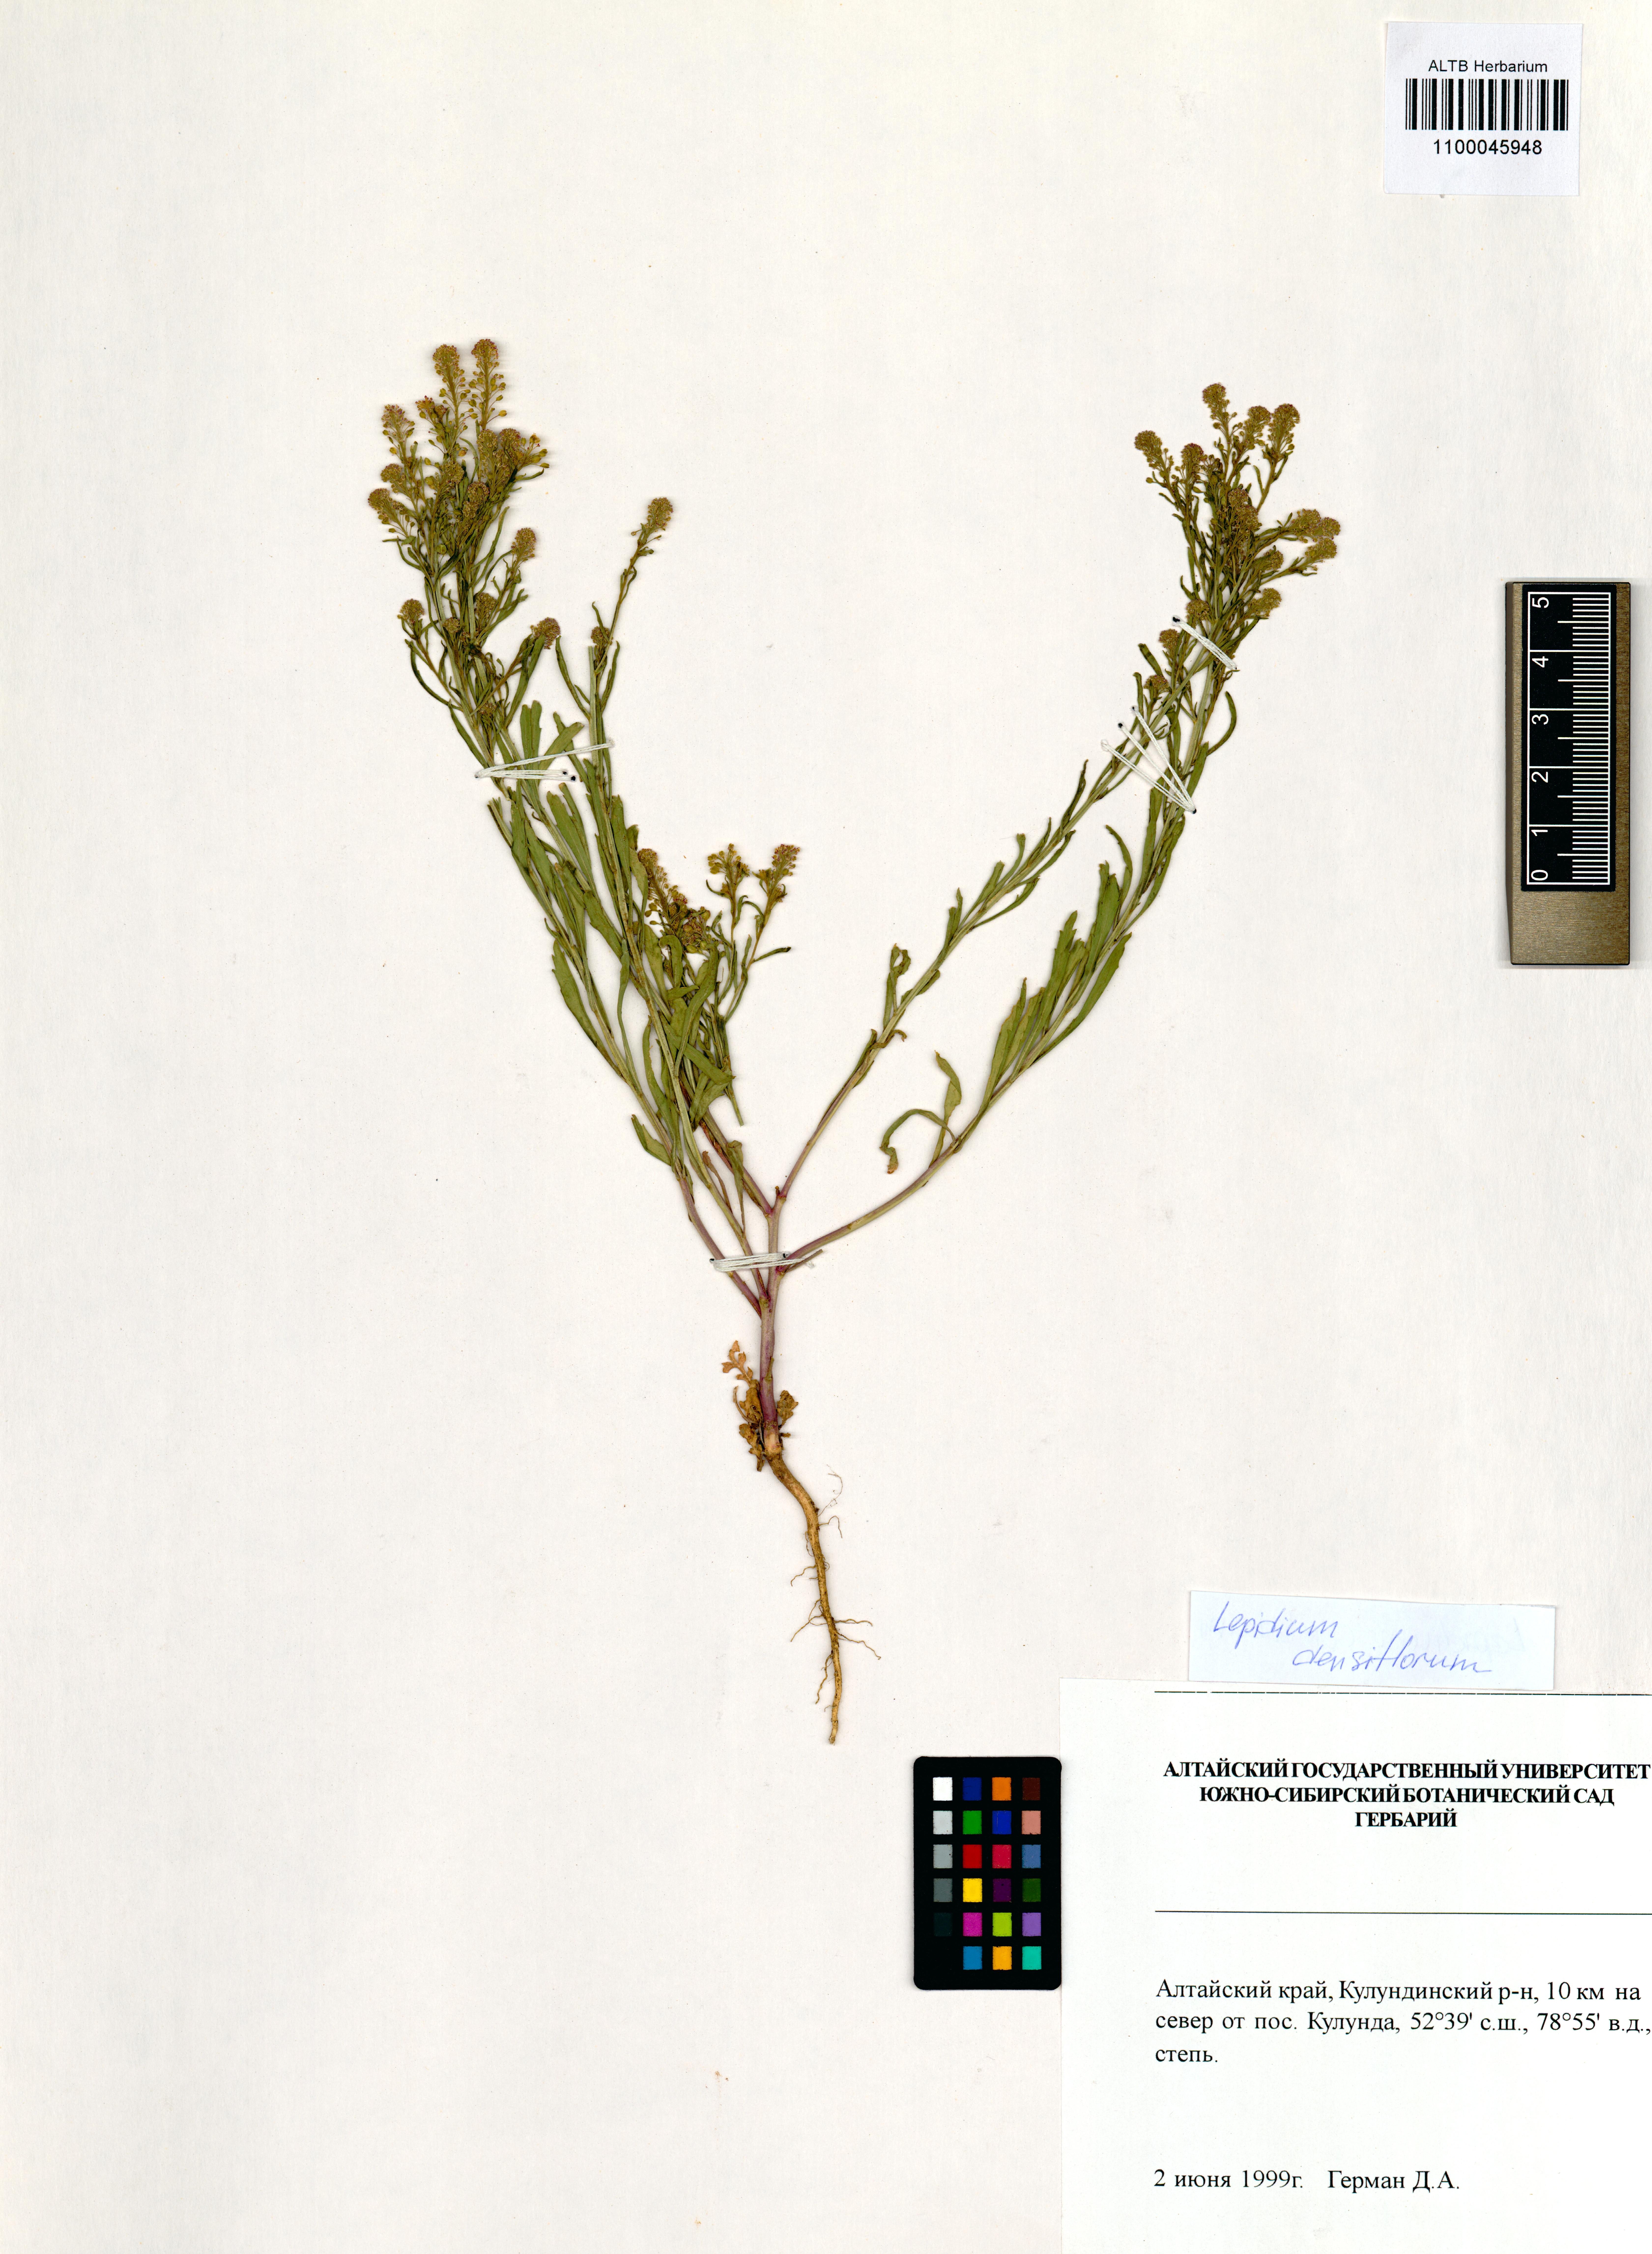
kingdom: Plantae
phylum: Tracheophyta
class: Magnoliopsida
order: Brassicales
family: Brassicaceae
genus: Lepidium
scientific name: Lepidium densiflorum
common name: Miner's pepperwort
